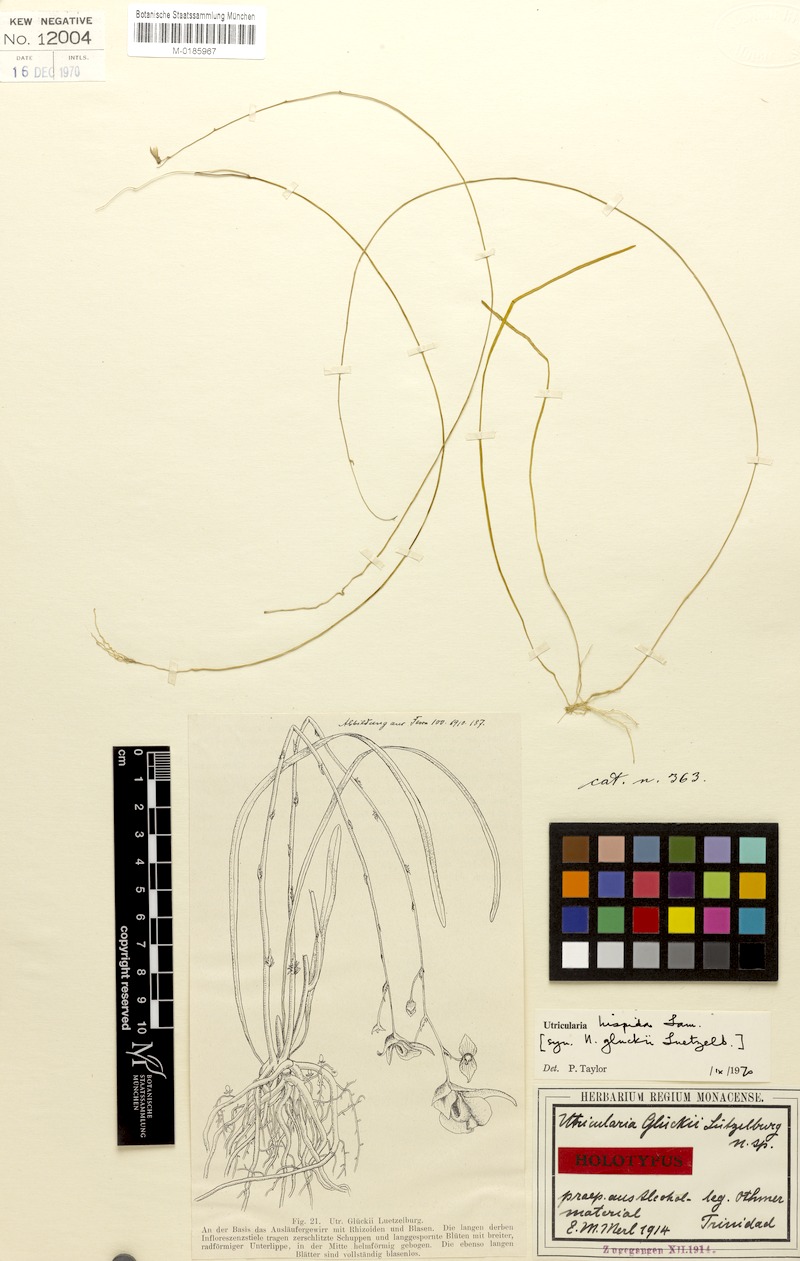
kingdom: Plantae
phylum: Tracheophyta
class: Magnoliopsida
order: Lamiales
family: Lentibulariaceae
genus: Utricularia
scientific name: Utricularia hispida
